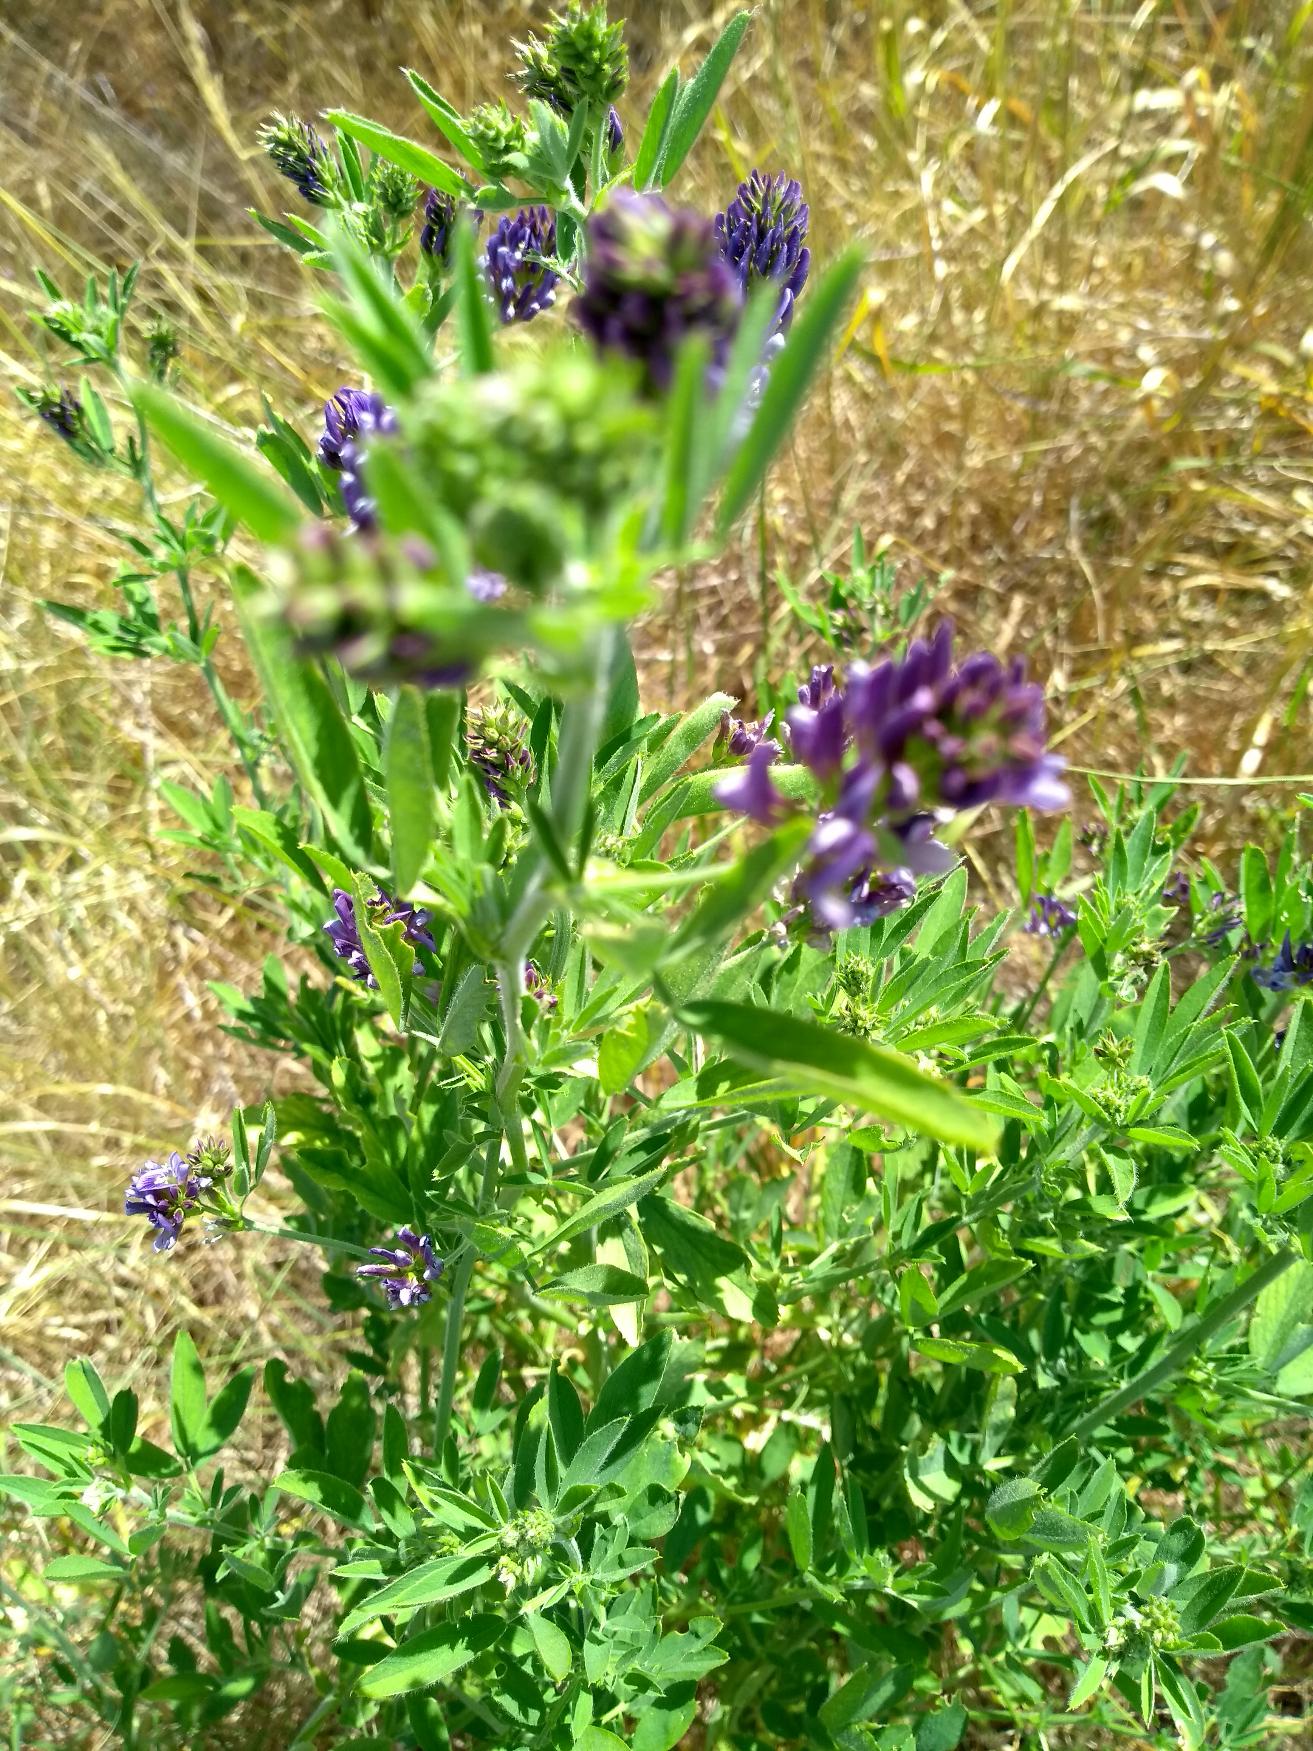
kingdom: Plantae
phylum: Tracheophyta
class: Magnoliopsida
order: Fabales
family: Fabaceae
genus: Medicago
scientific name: Medicago sativa
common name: Lucerne
